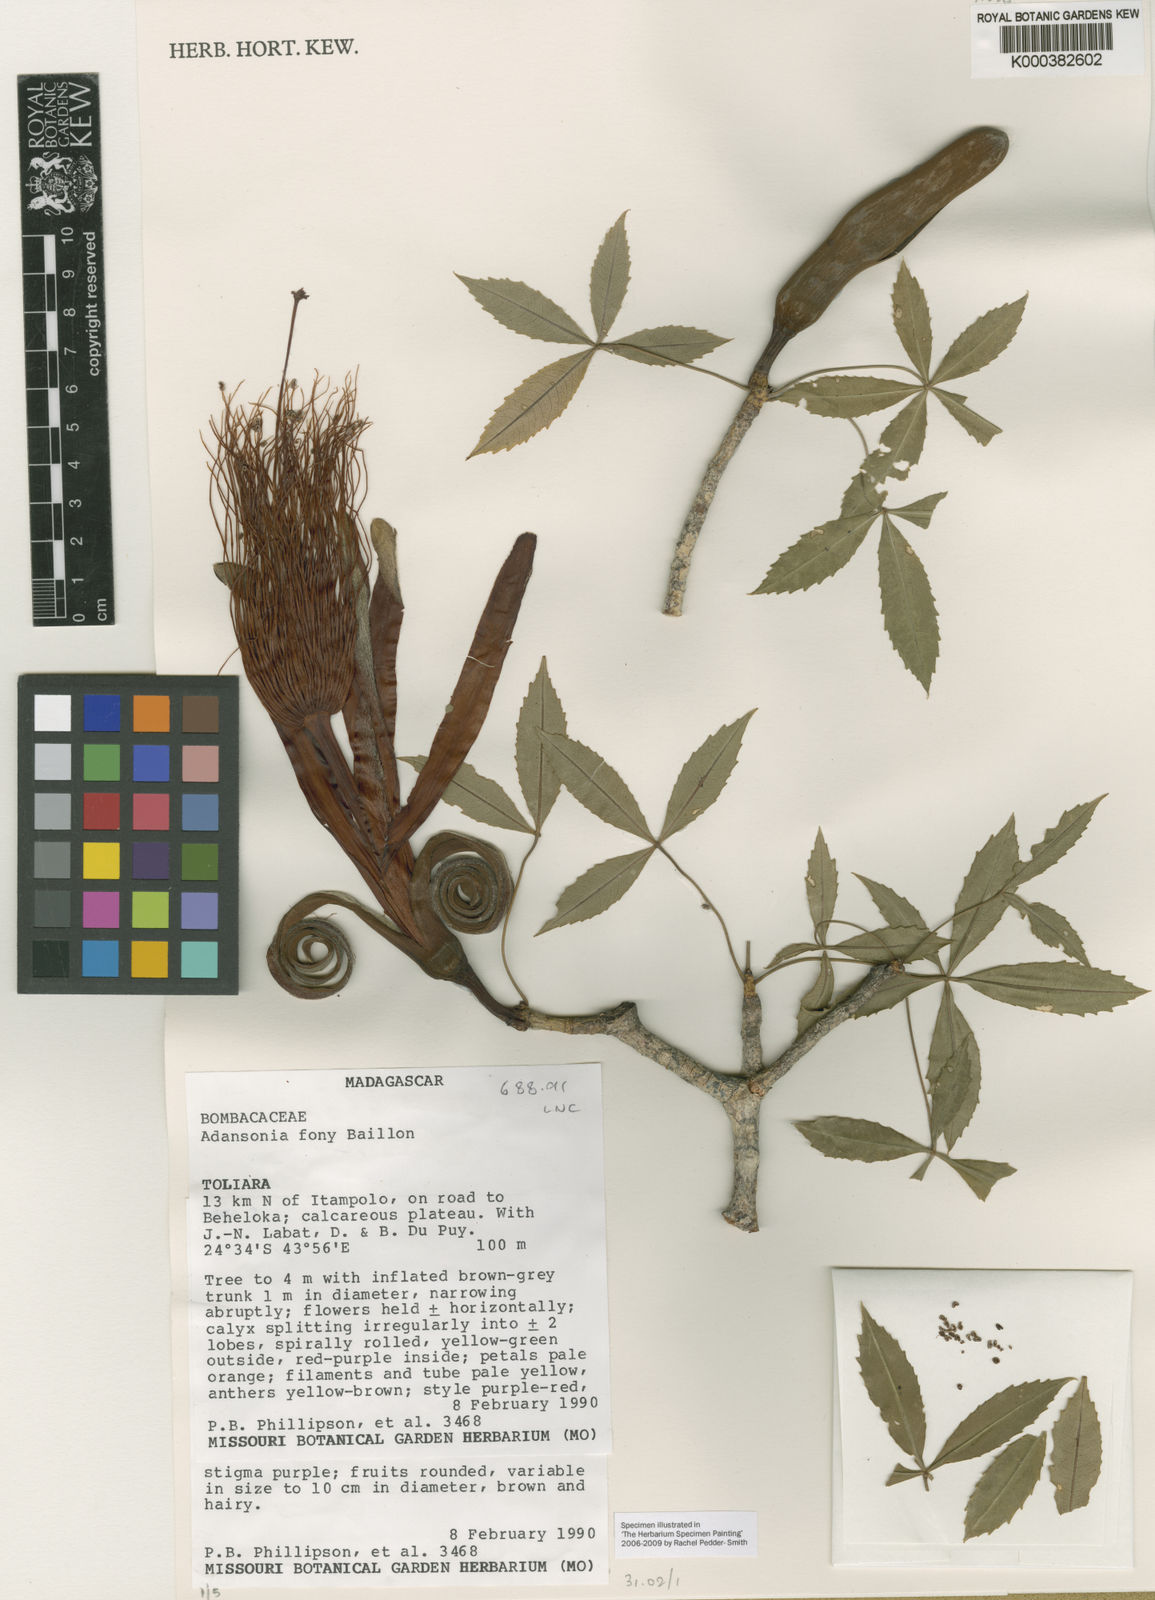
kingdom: Plantae
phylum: Tracheophyta
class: Magnoliopsida
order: Malvales
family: Malvaceae
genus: Adansonia
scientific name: Adansonia
